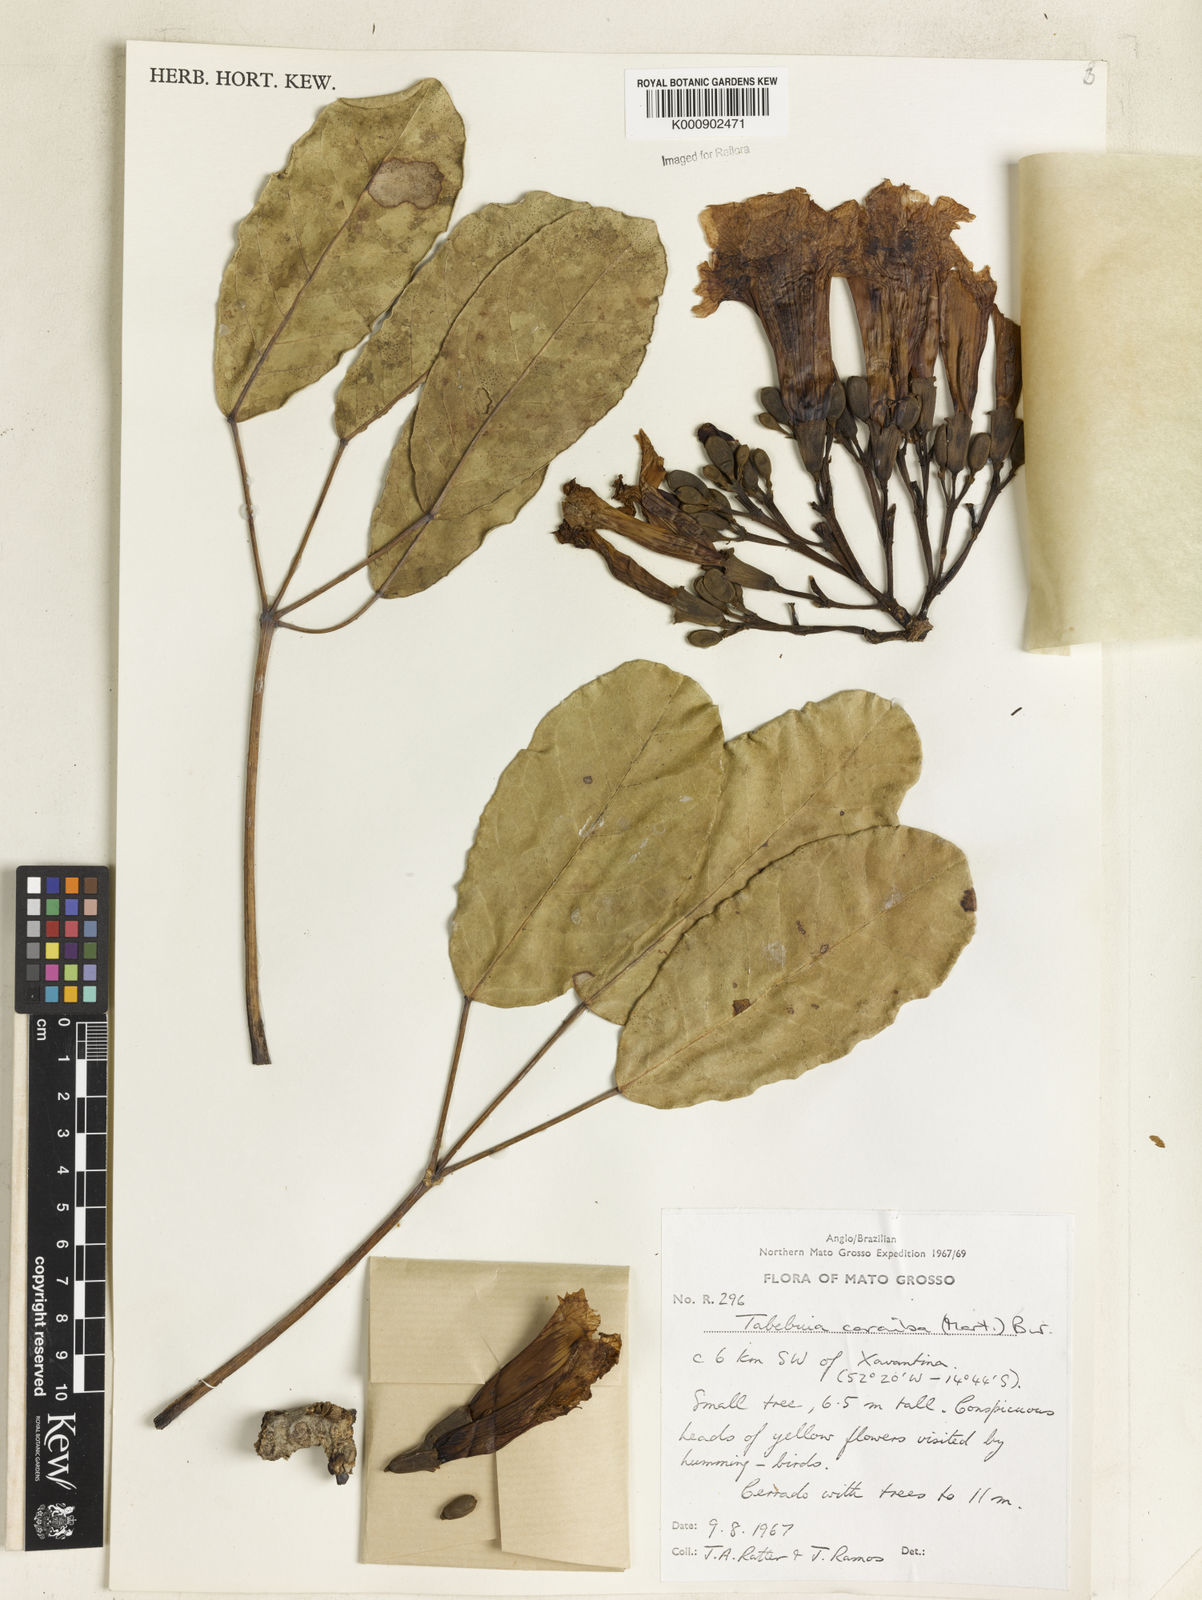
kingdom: Plantae
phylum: Tracheophyta
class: Magnoliopsida
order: Lamiales
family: Bignoniaceae
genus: Tabebuia
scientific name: Tabebuia aurea
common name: Caribbean trumpet-tree
